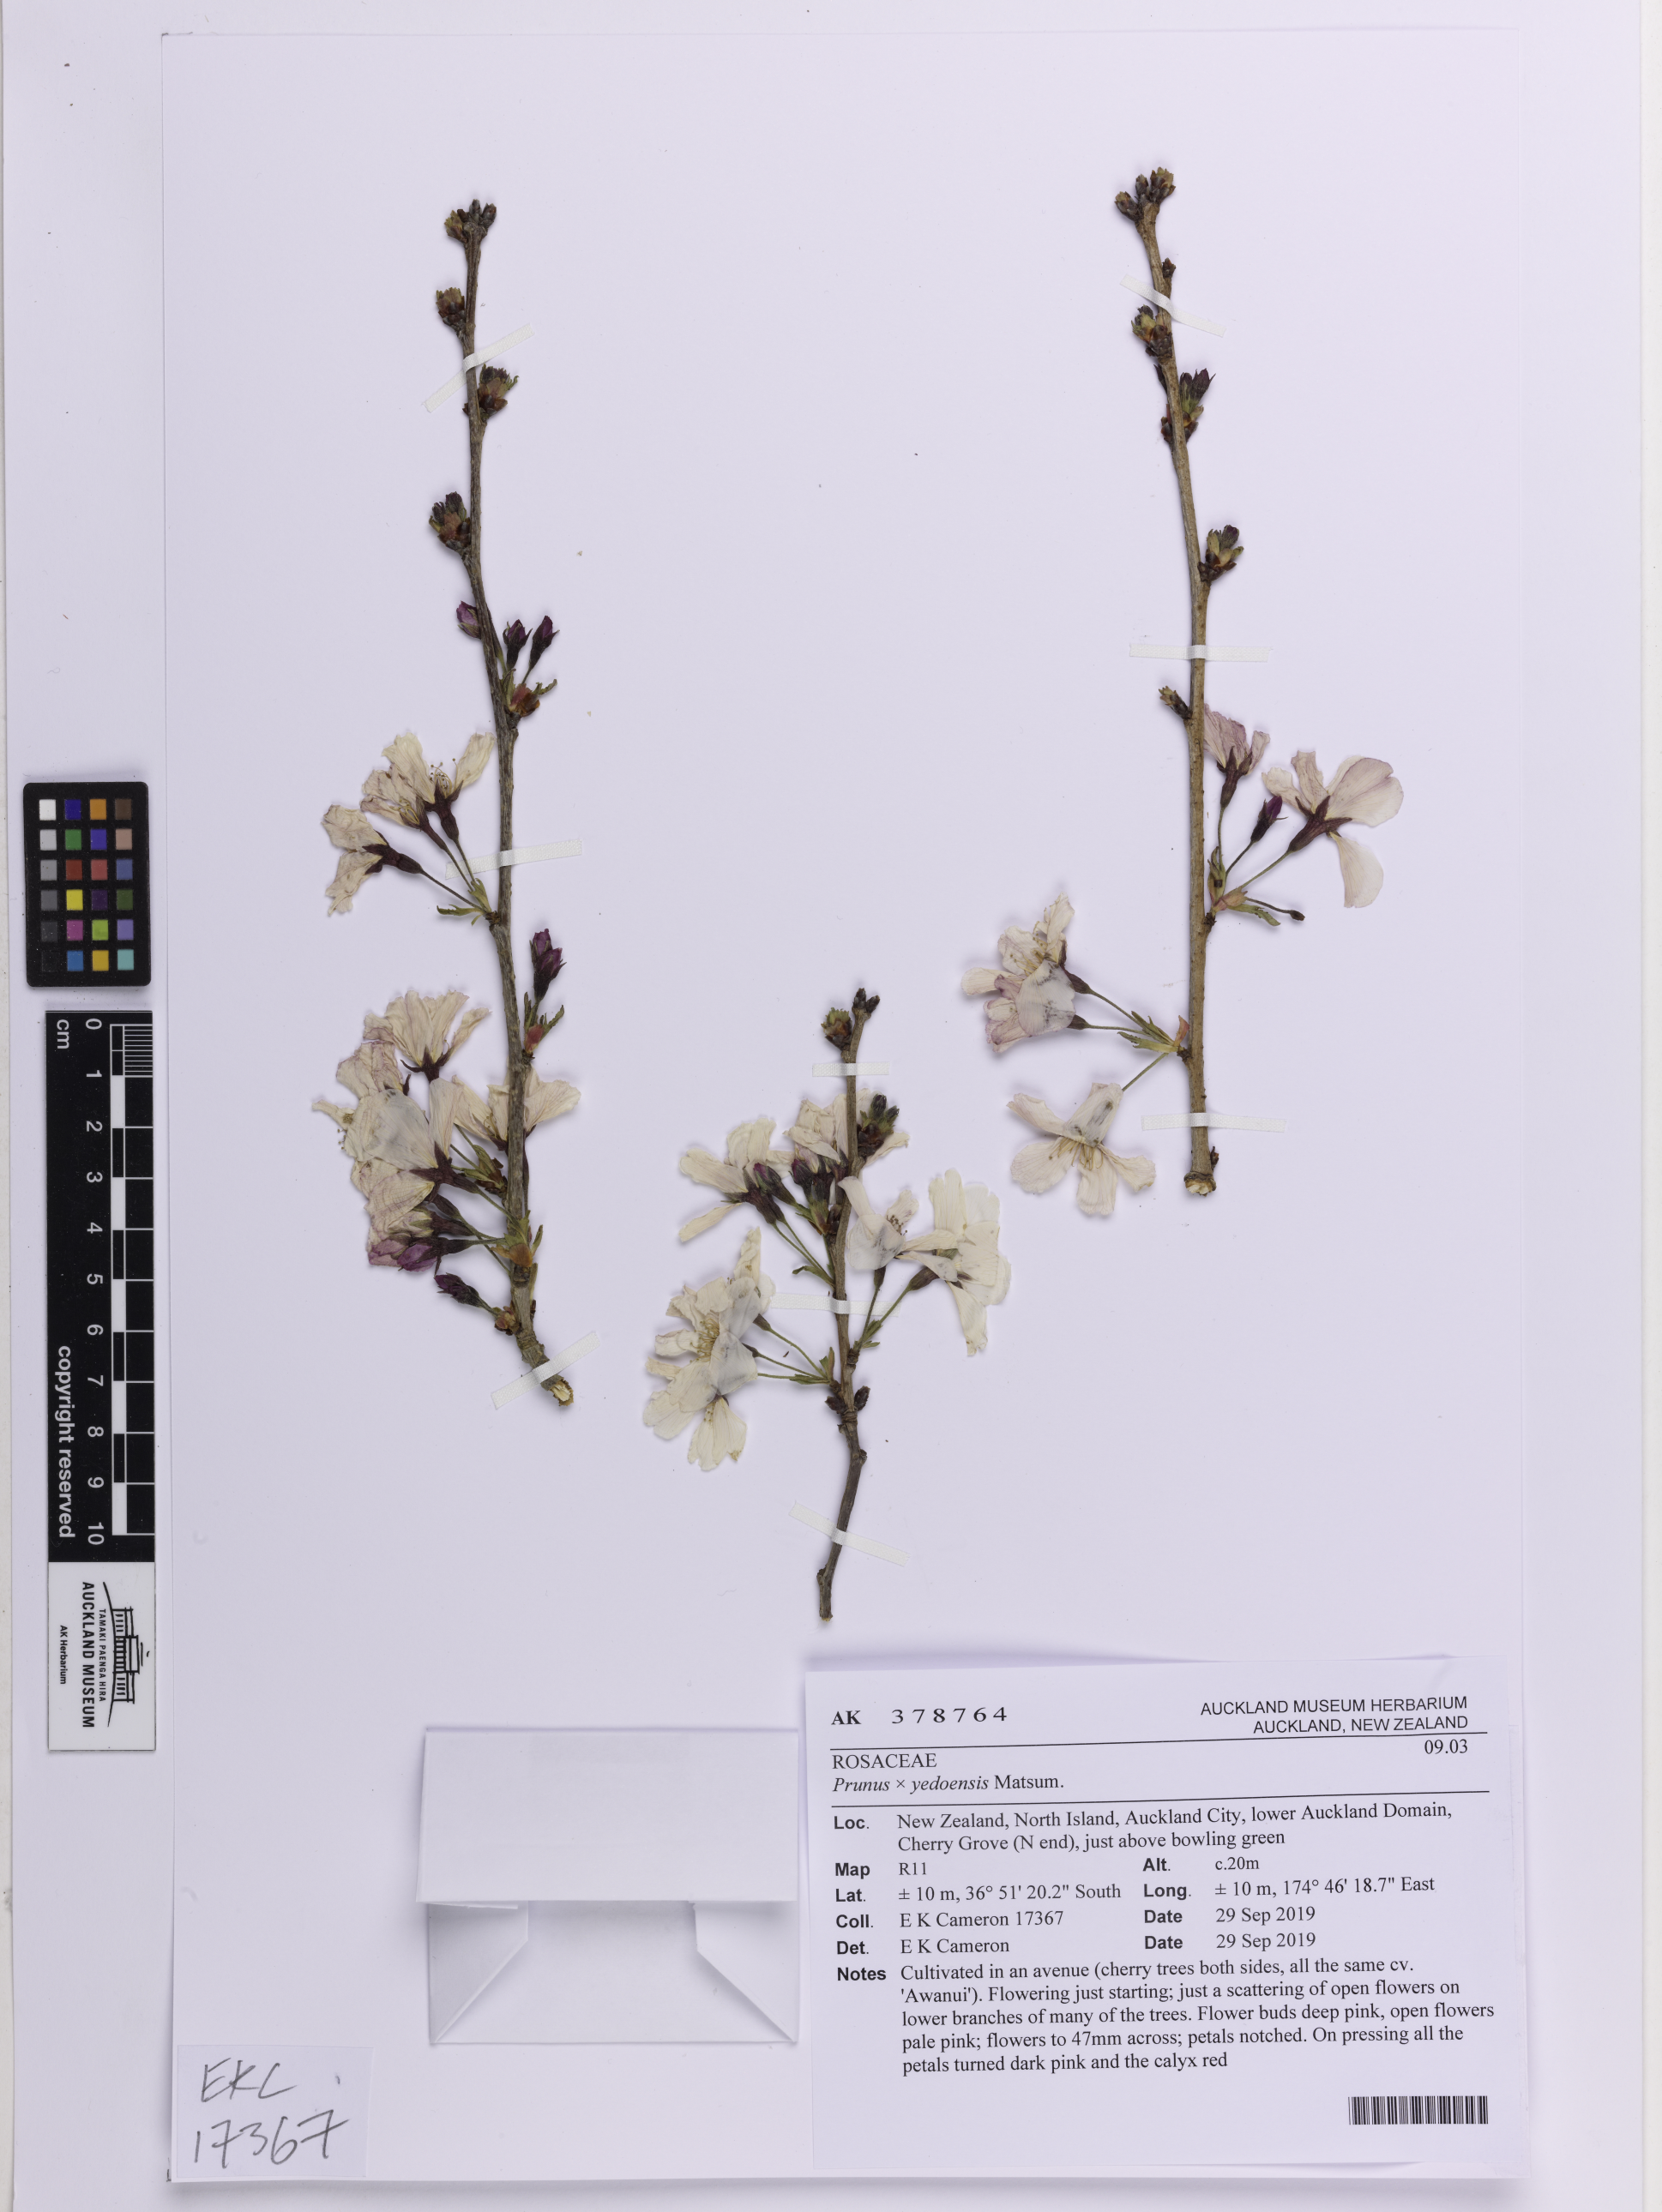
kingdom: Plantae
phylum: Tracheophyta
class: Magnoliopsida
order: Rosales
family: Rosaceae
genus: Prunus
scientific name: Prunus yedoensis
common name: Yoshino cherry
